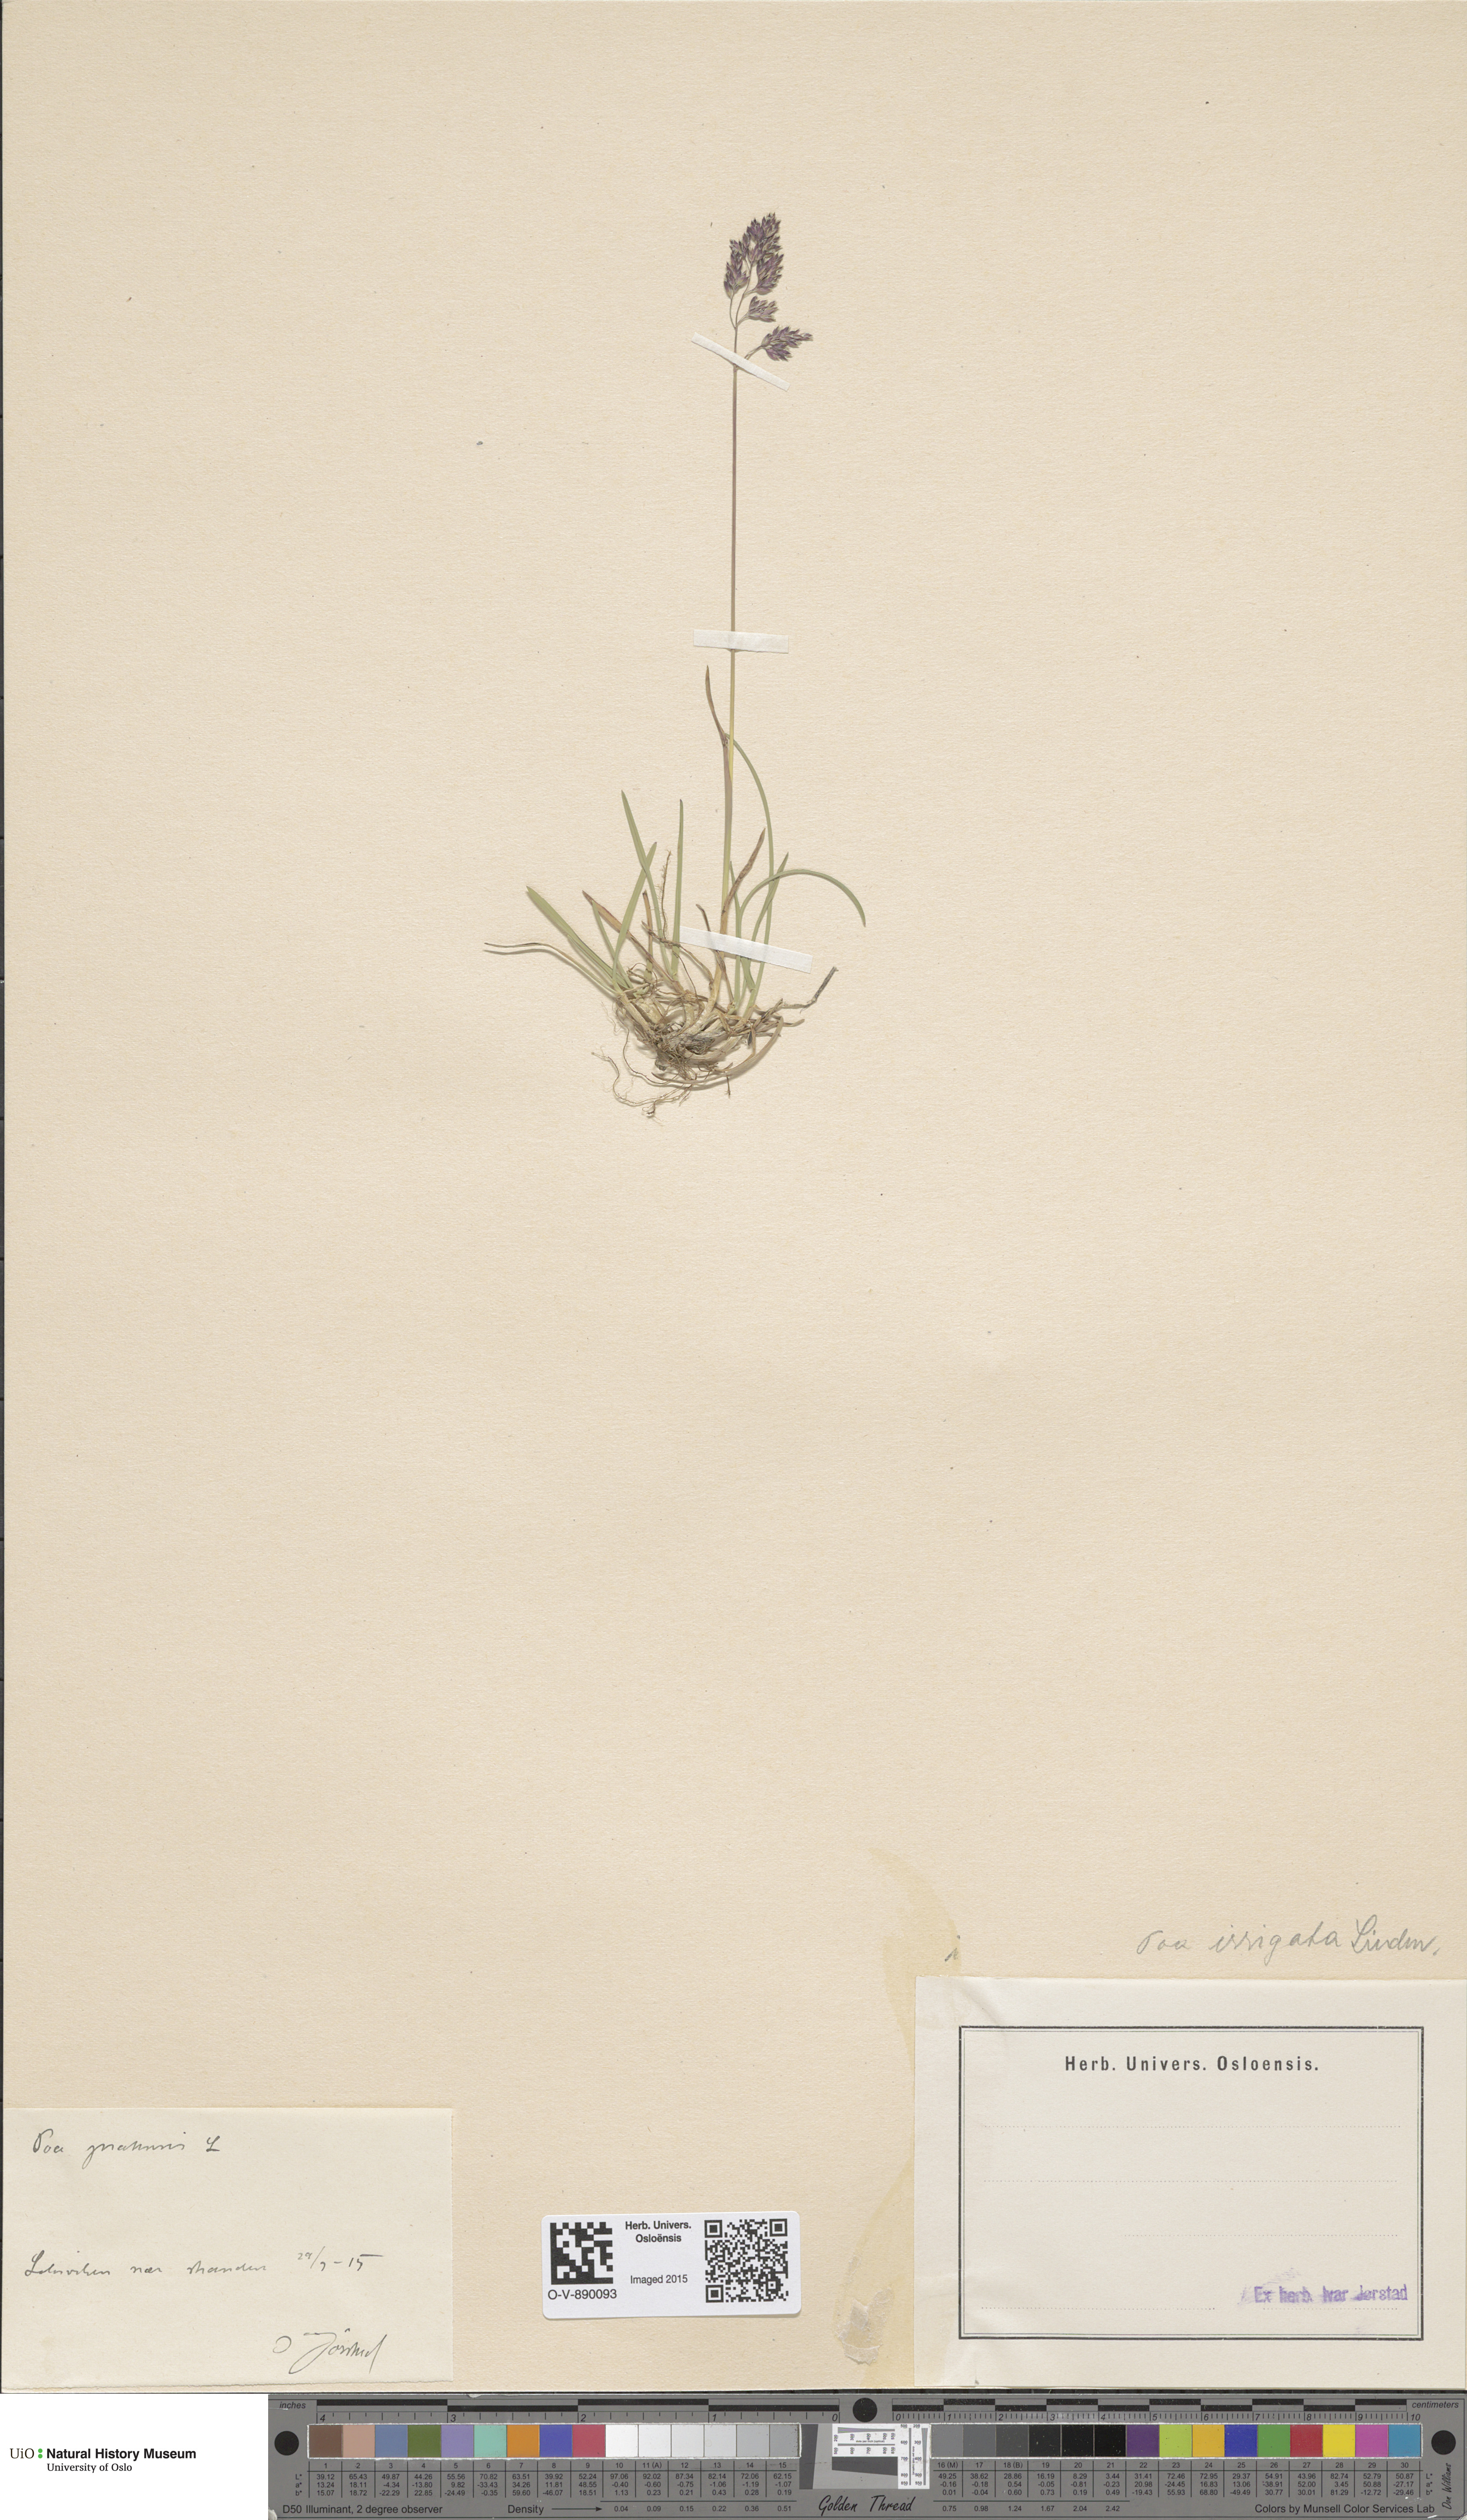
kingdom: Plantae
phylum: Tracheophyta
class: Liliopsida
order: Poales
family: Poaceae
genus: Poa
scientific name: Poa humilis
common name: Spreading meadow-grass
